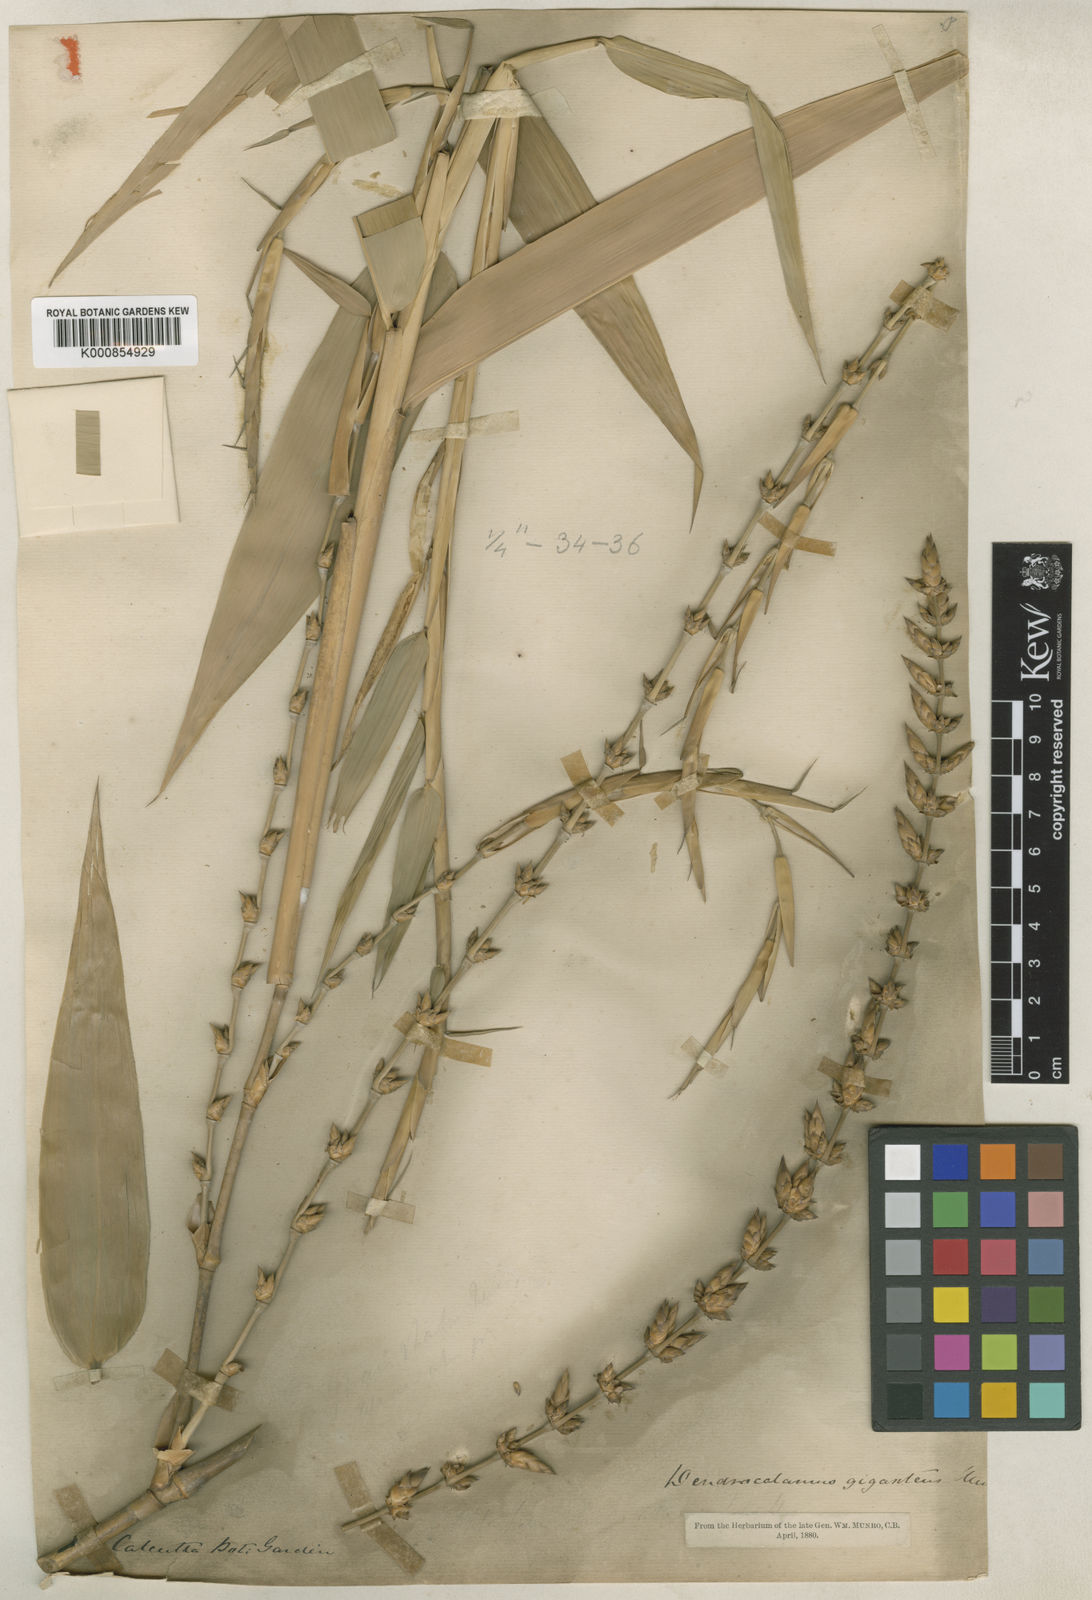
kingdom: Plantae
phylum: Tracheophyta
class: Liliopsida
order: Poales
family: Poaceae
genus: Dendrocalamus
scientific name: Dendrocalamus giganteus
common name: Giant bamboo
